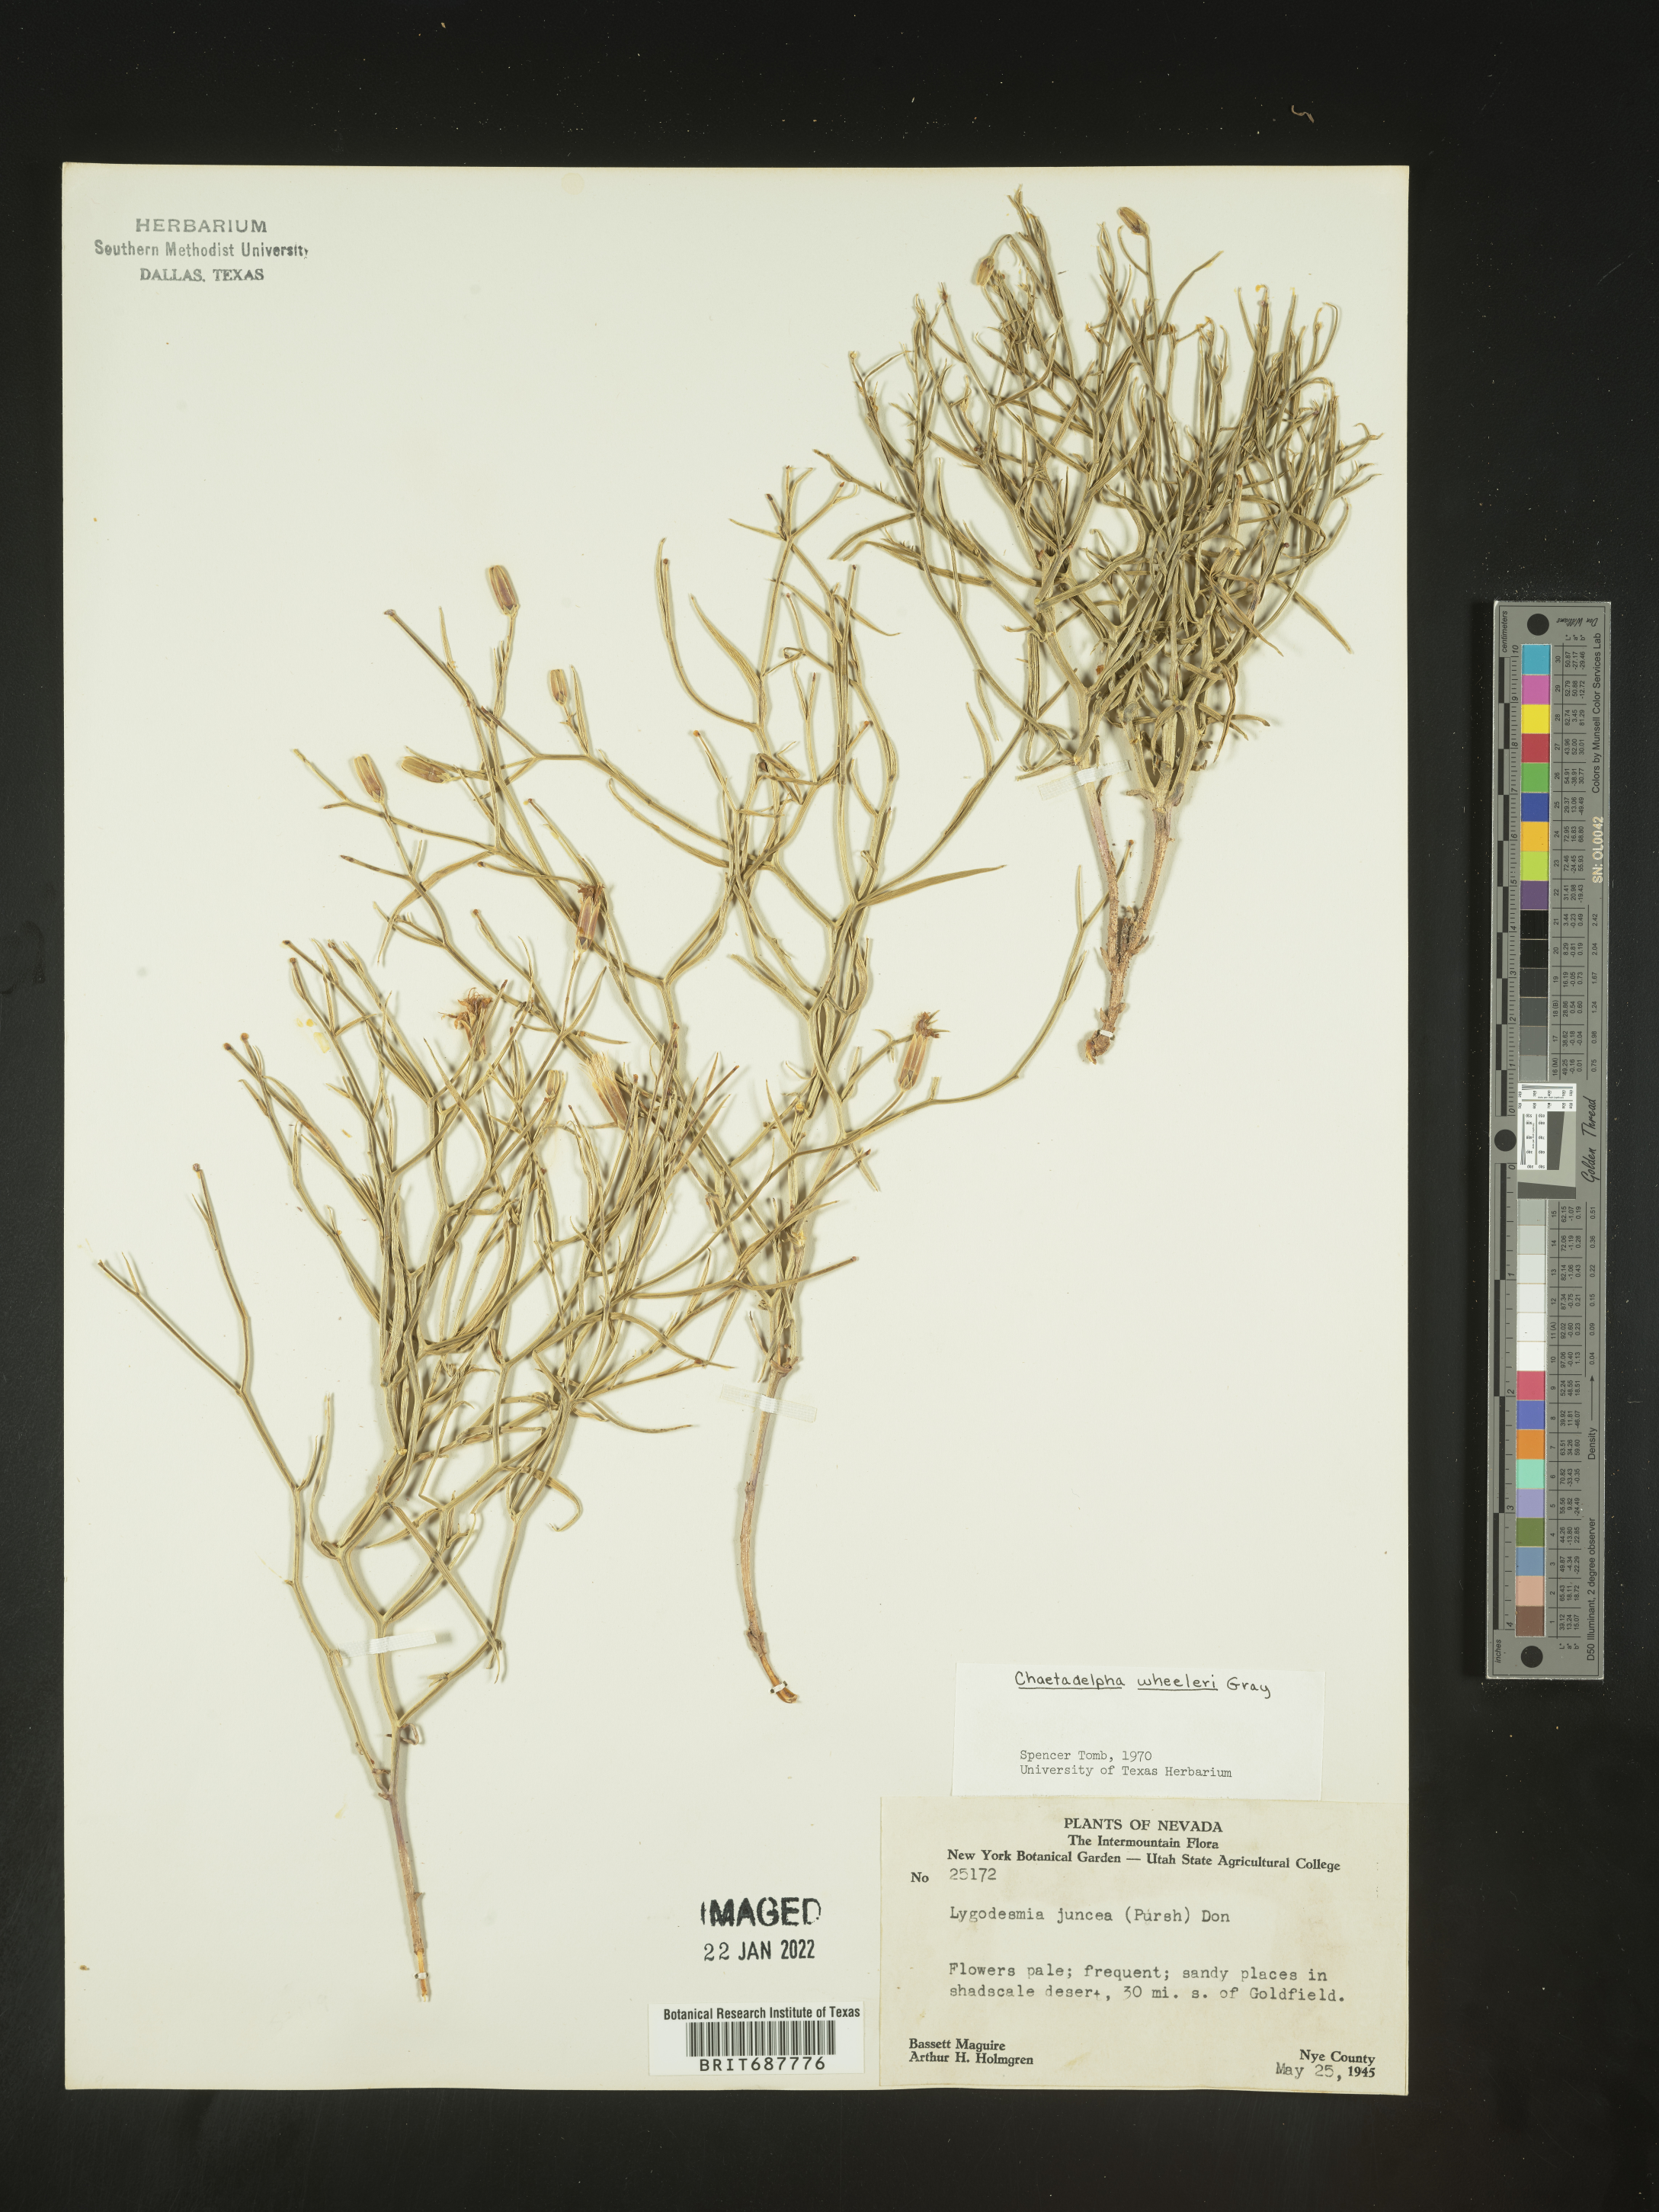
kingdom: Plantae
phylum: Tracheophyta
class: Magnoliopsida
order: Asterales
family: Asteraceae
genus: Chaetadelpha
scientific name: Chaetadelpha wheeleri
